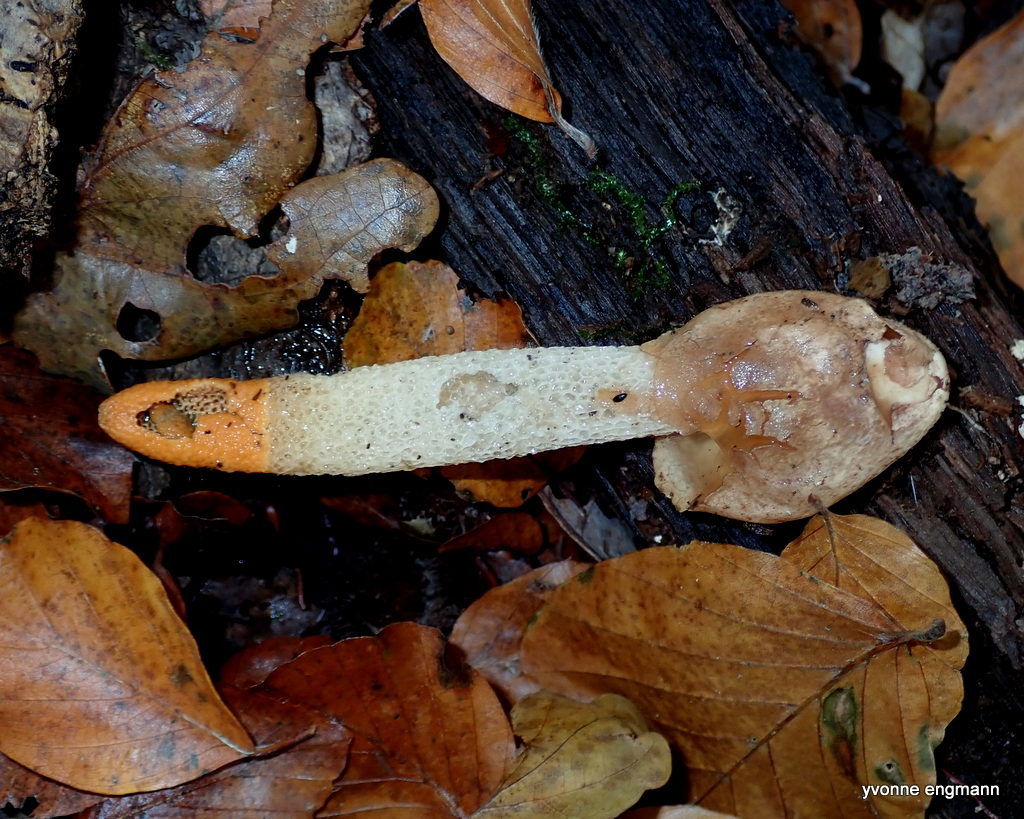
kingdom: Fungi
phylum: Basidiomycota
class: Agaricomycetes
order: Phallales
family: Phallaceae
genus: Mutinus
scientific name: Mutinus caninus
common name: hunde-stinksvamp
